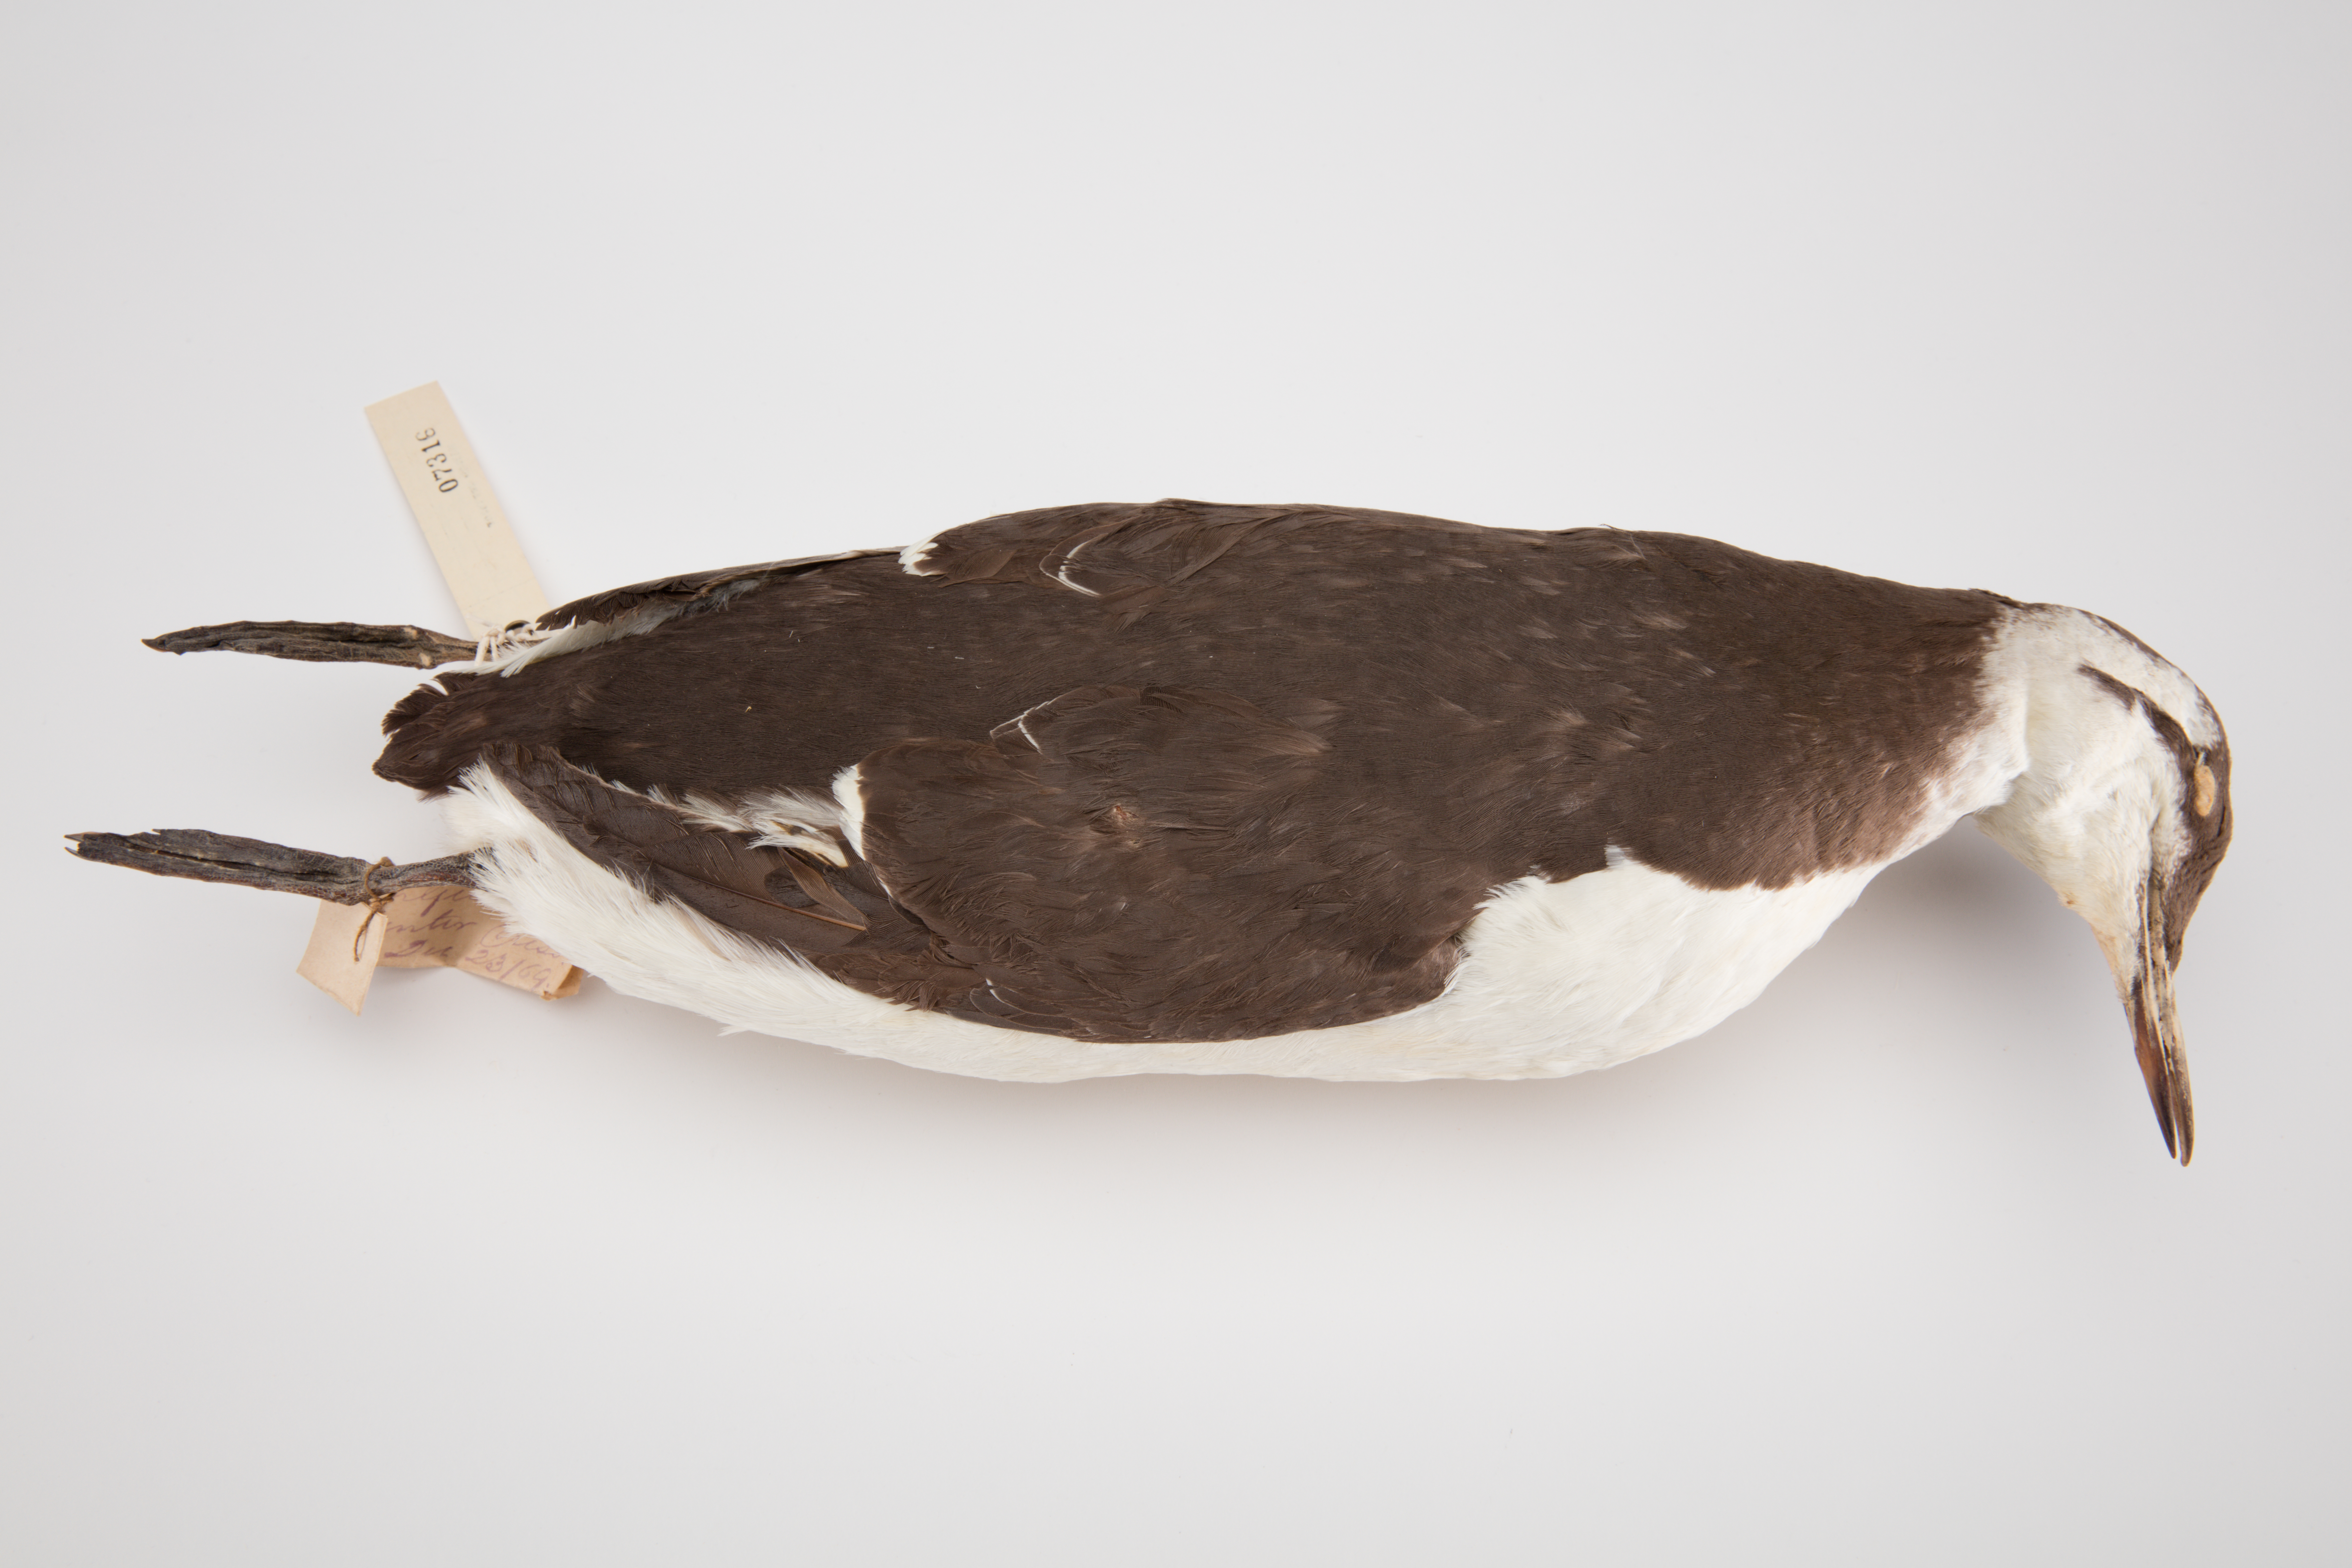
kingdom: Animalia
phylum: Chordata
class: Aves
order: Charadriiformes
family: Alcidae
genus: Uria
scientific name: Uria aalge
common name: Common murre
